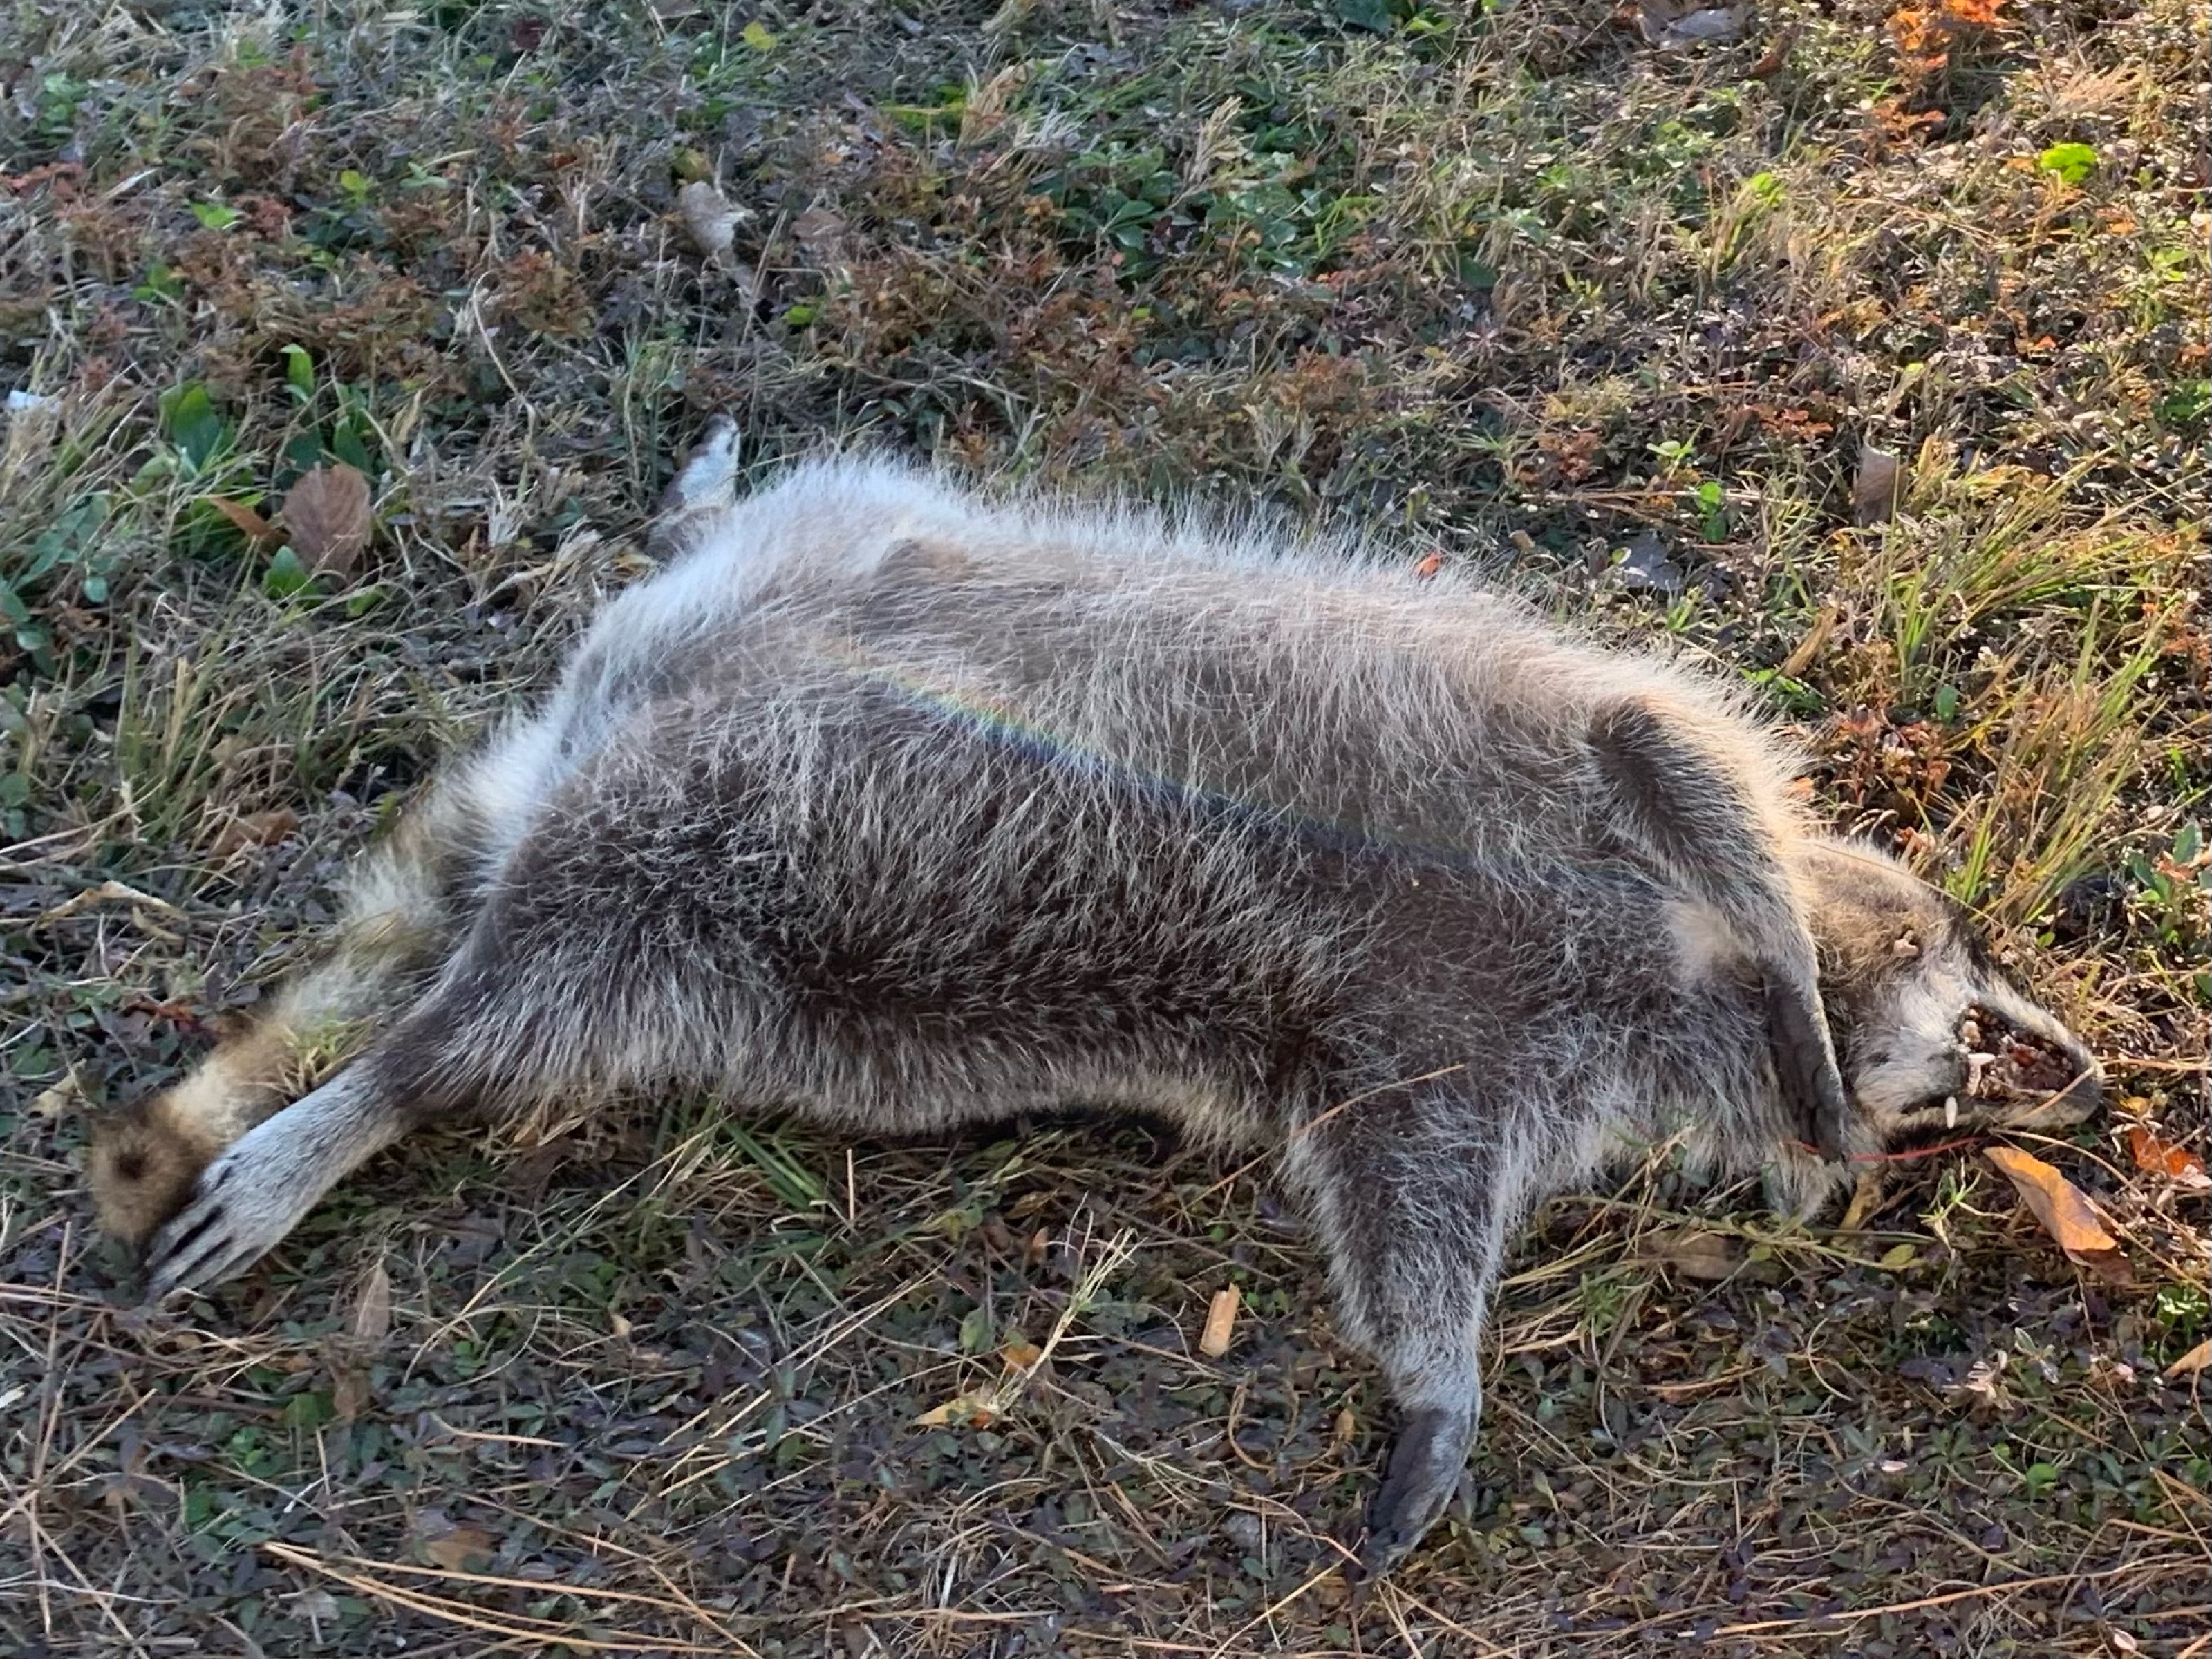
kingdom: Animalia
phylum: Chordata
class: Mammalia
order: Carnivora
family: Procyonidae
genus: Procyon
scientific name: Procyon lotor
